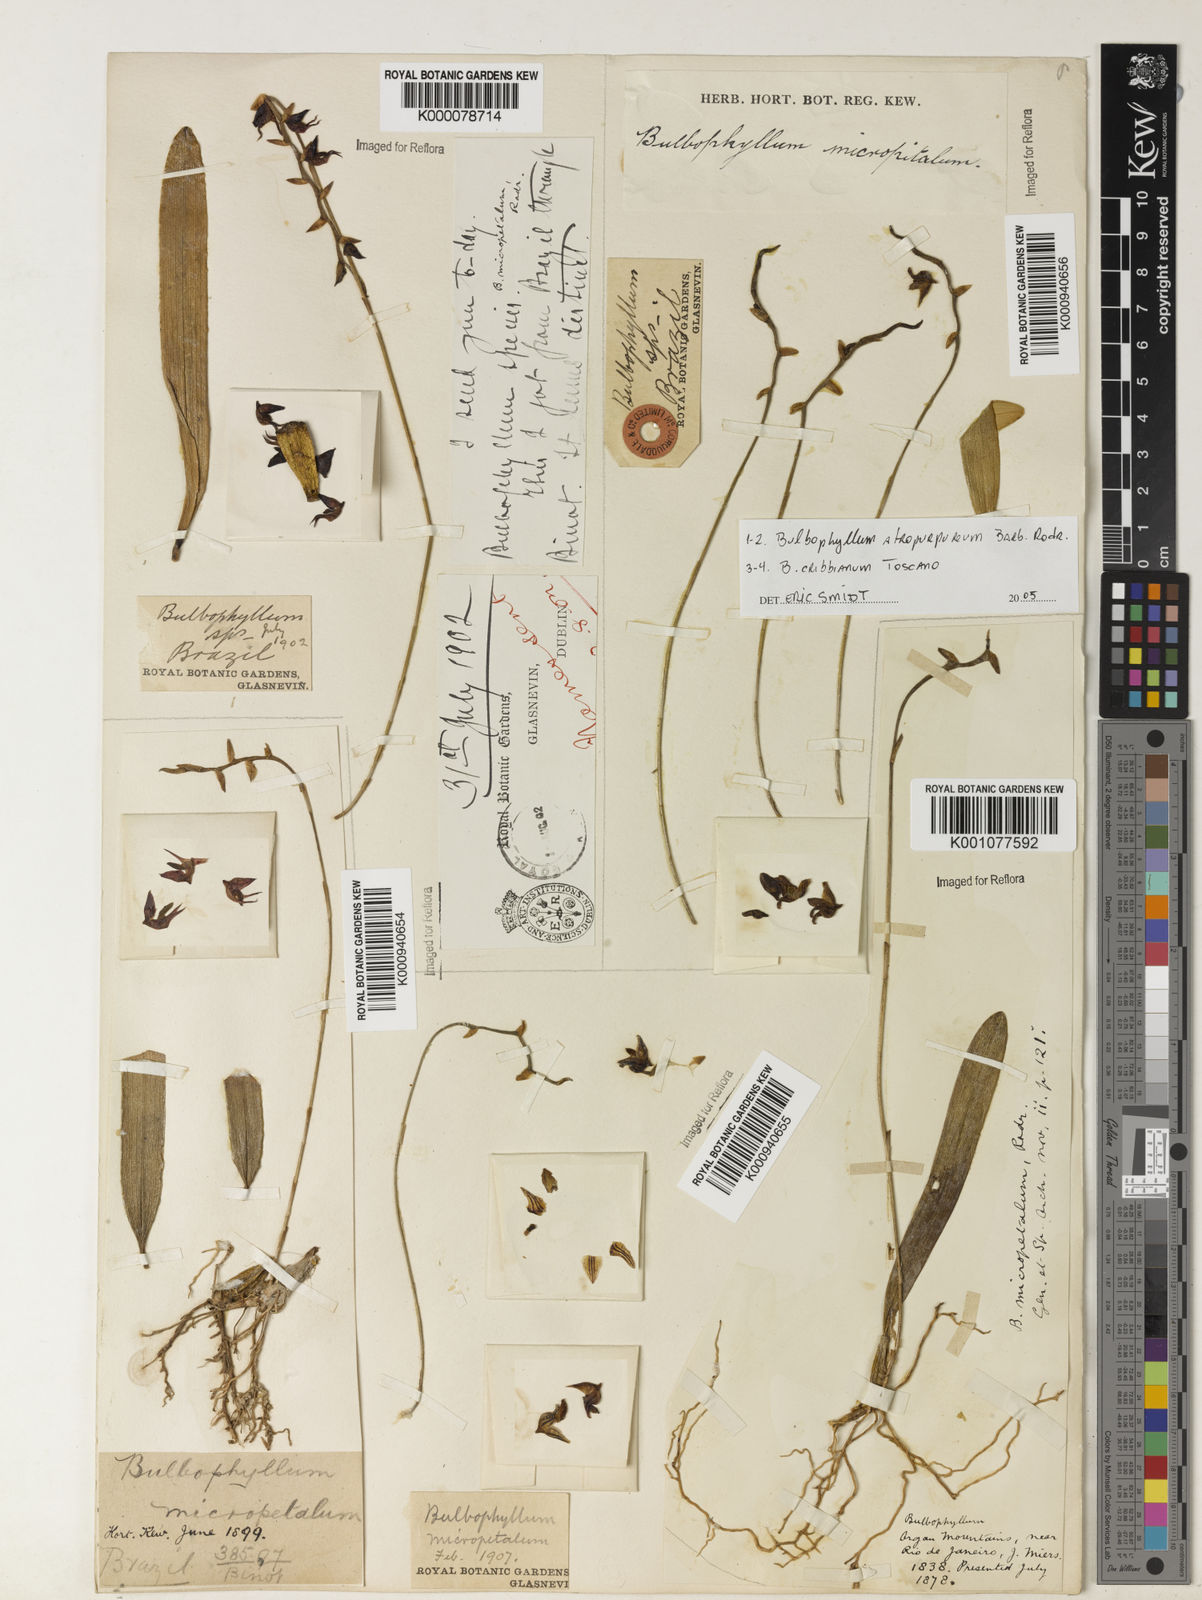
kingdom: Plantae
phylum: Tracheophyta
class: Liliopsida
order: Asparagales
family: Orchidaceae
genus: Bulbophyllum
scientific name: Bulbophyllum micropetaliforme
